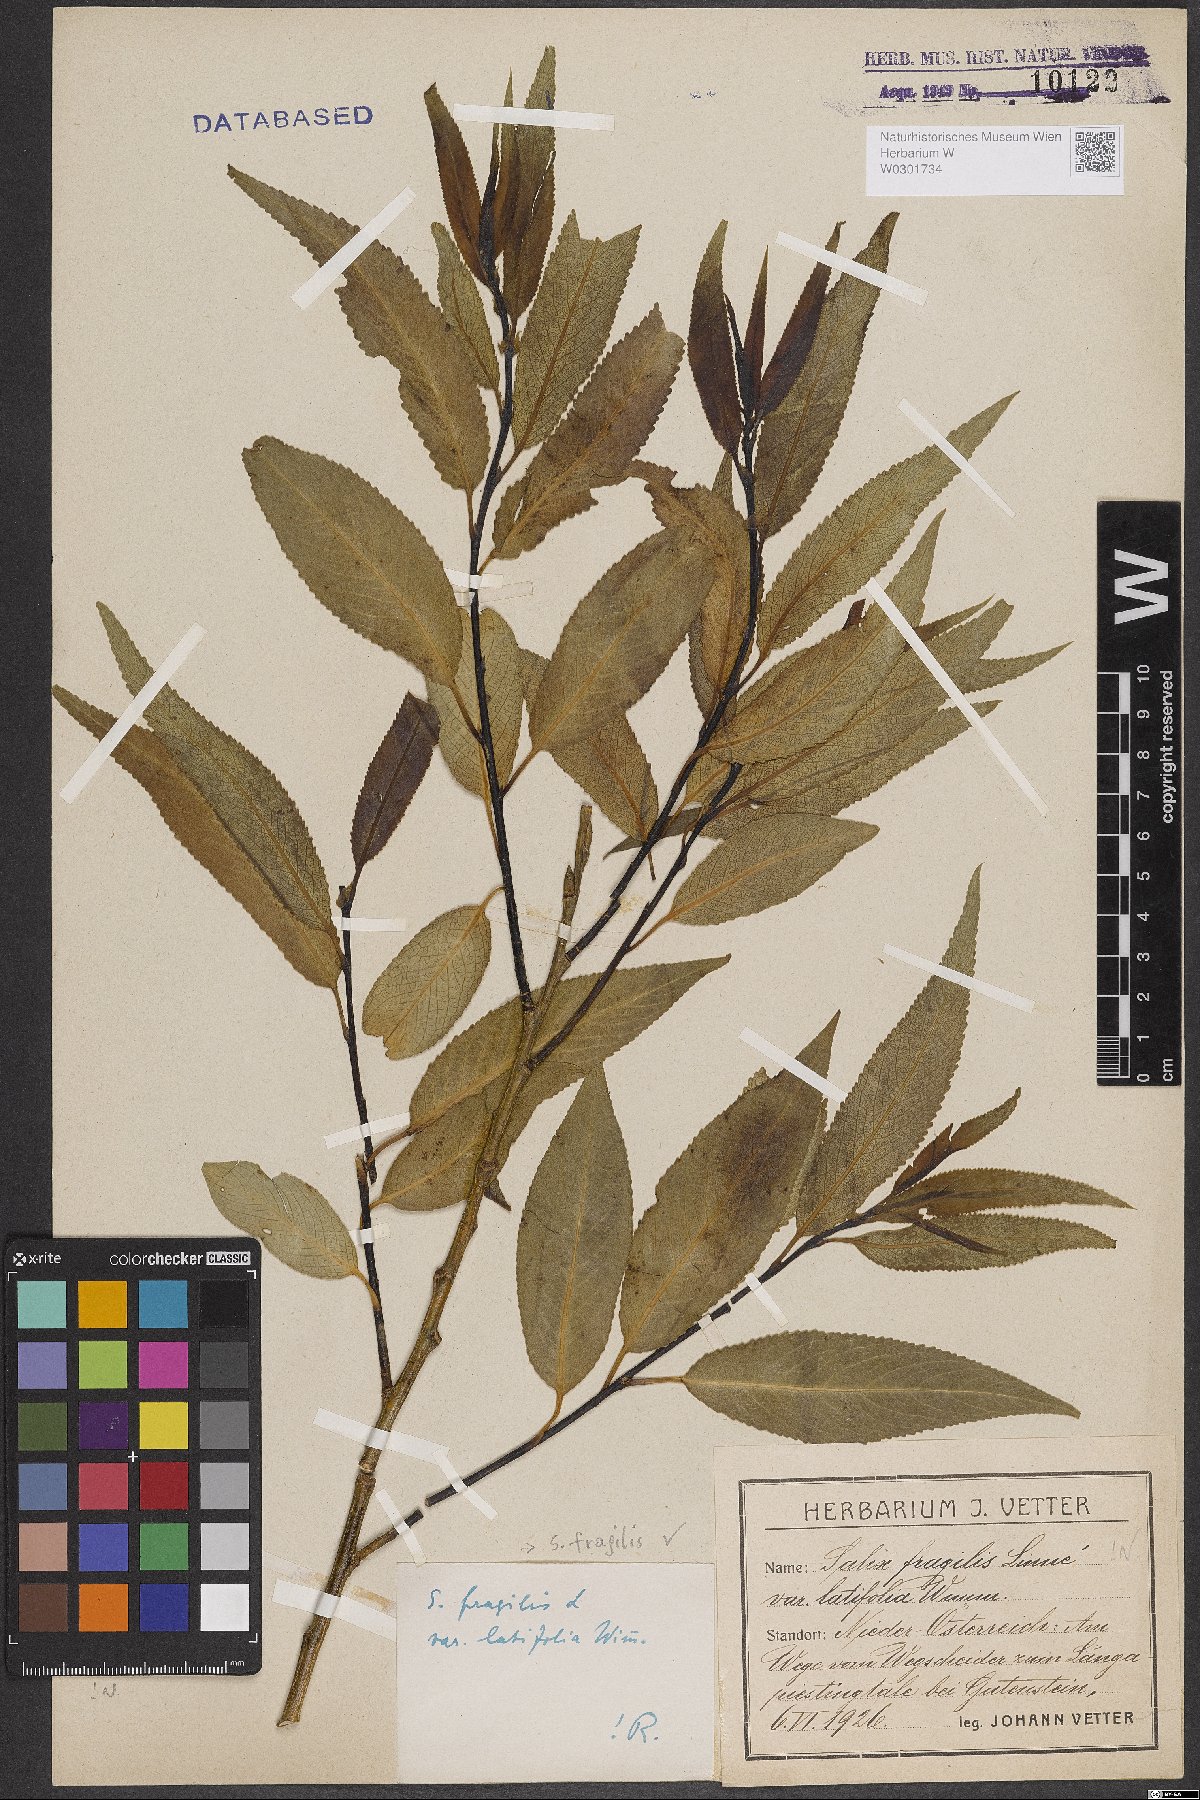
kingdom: Plantae
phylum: Tracheophyta
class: Magnoliopsida
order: Malpighiales
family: Salicaceae
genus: Salix
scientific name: Salix fragilis
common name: Crack willow
